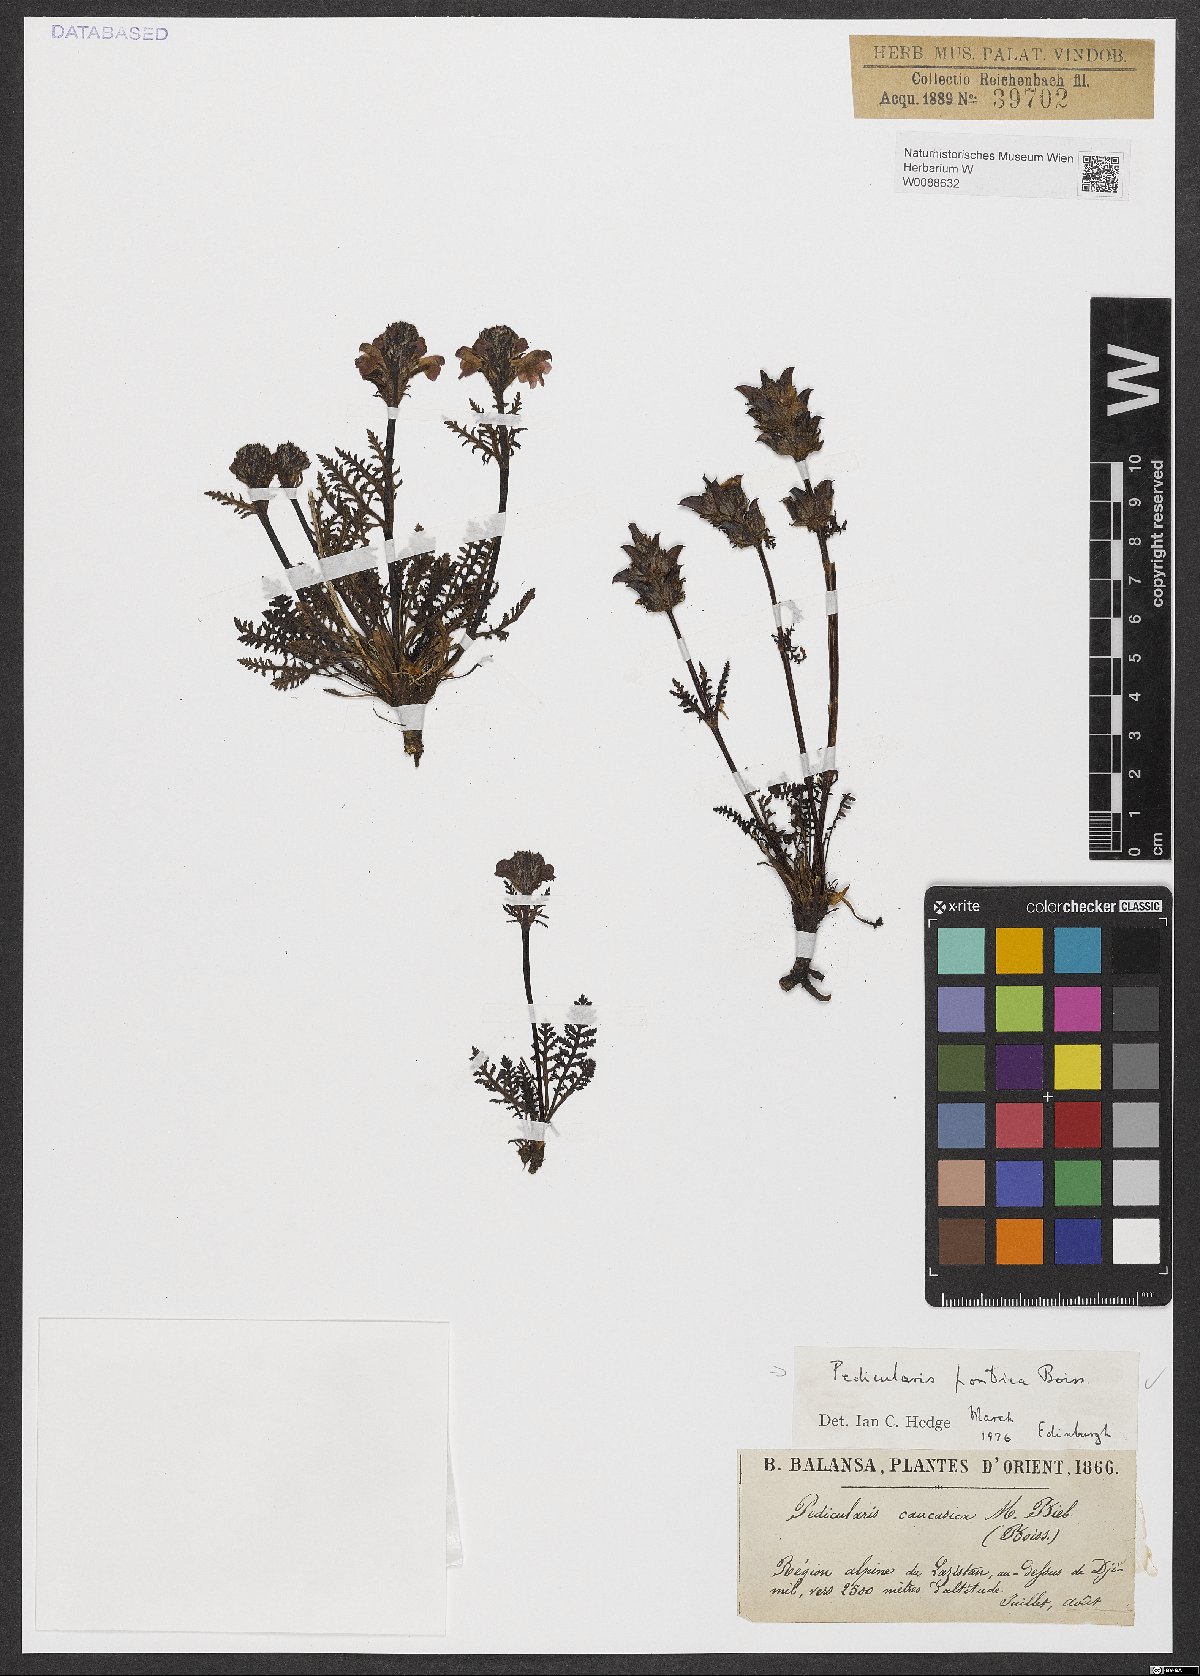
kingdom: Plantae
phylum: Tracheophyta
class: Magnoliopsida
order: Lamiales
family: Orobanchaceae
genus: Pedicularis
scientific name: Pedicularis pontica
